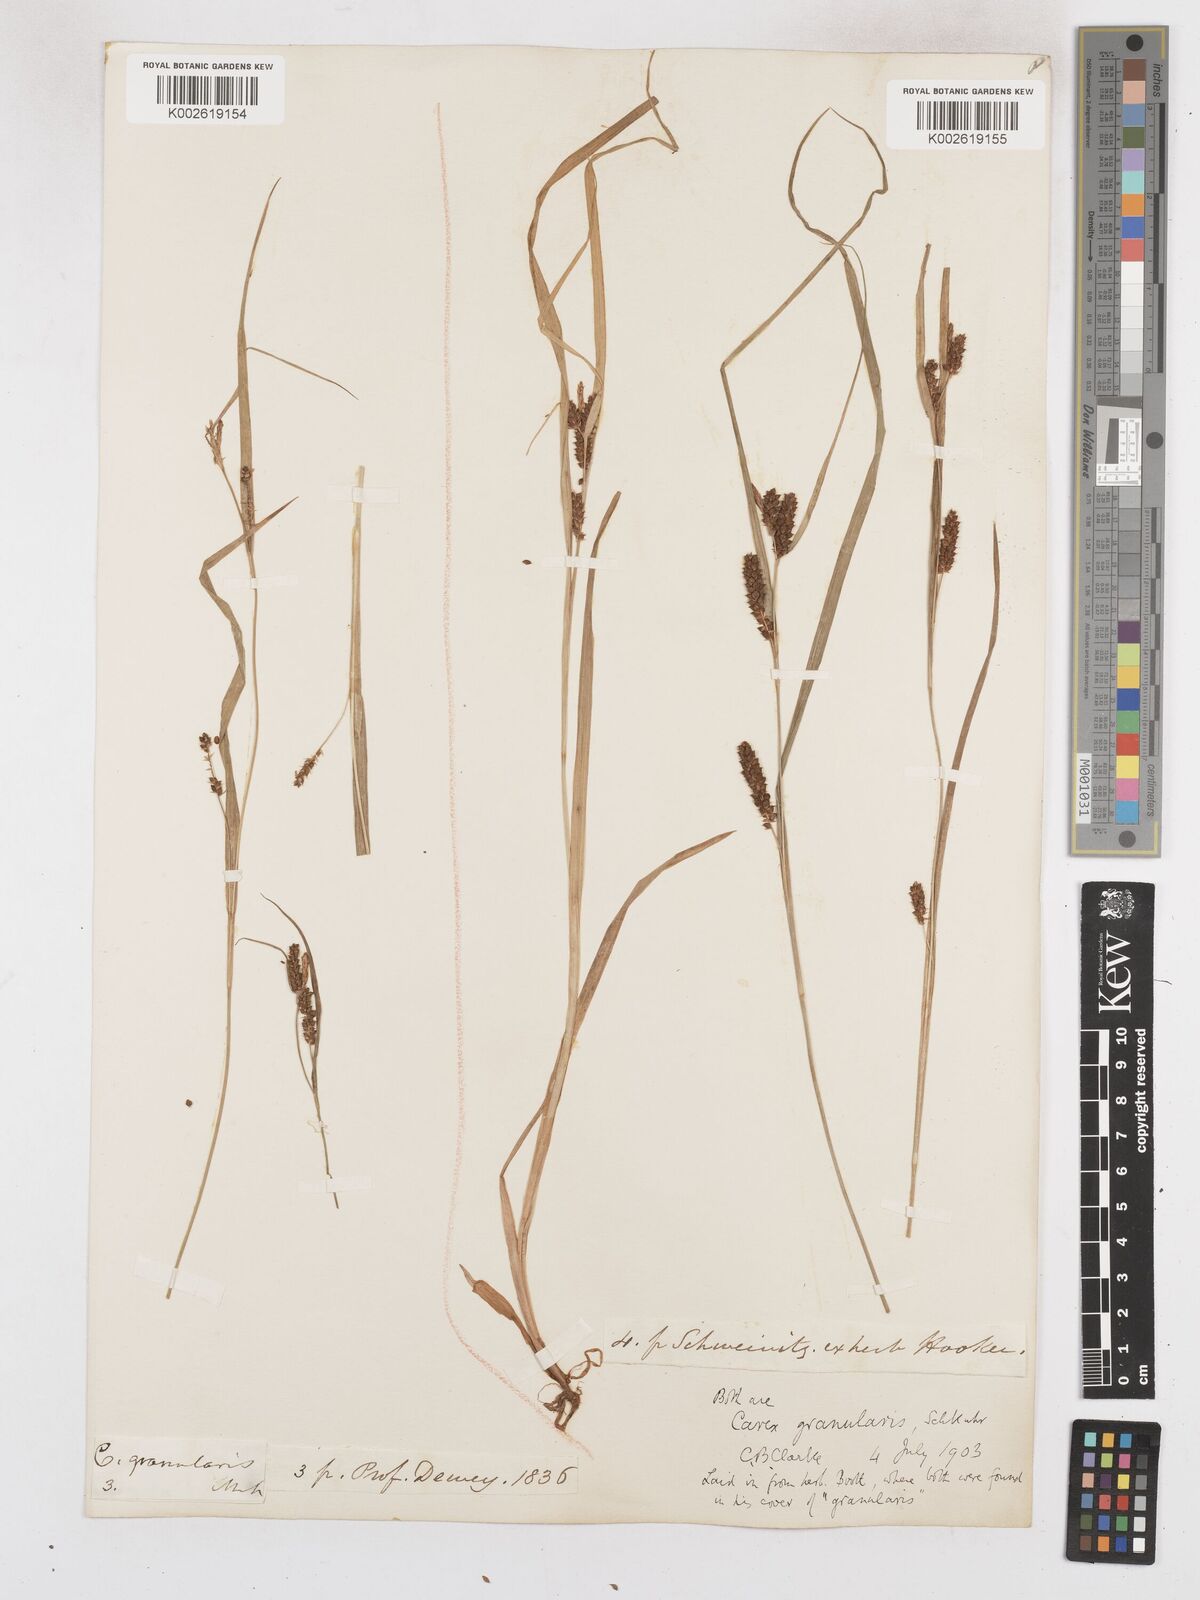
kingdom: Plantae
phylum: Tracheophyta
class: Liliopsida
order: Poales
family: Cyperaceae
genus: Carex
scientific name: Carex granularis
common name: Granular sedge
